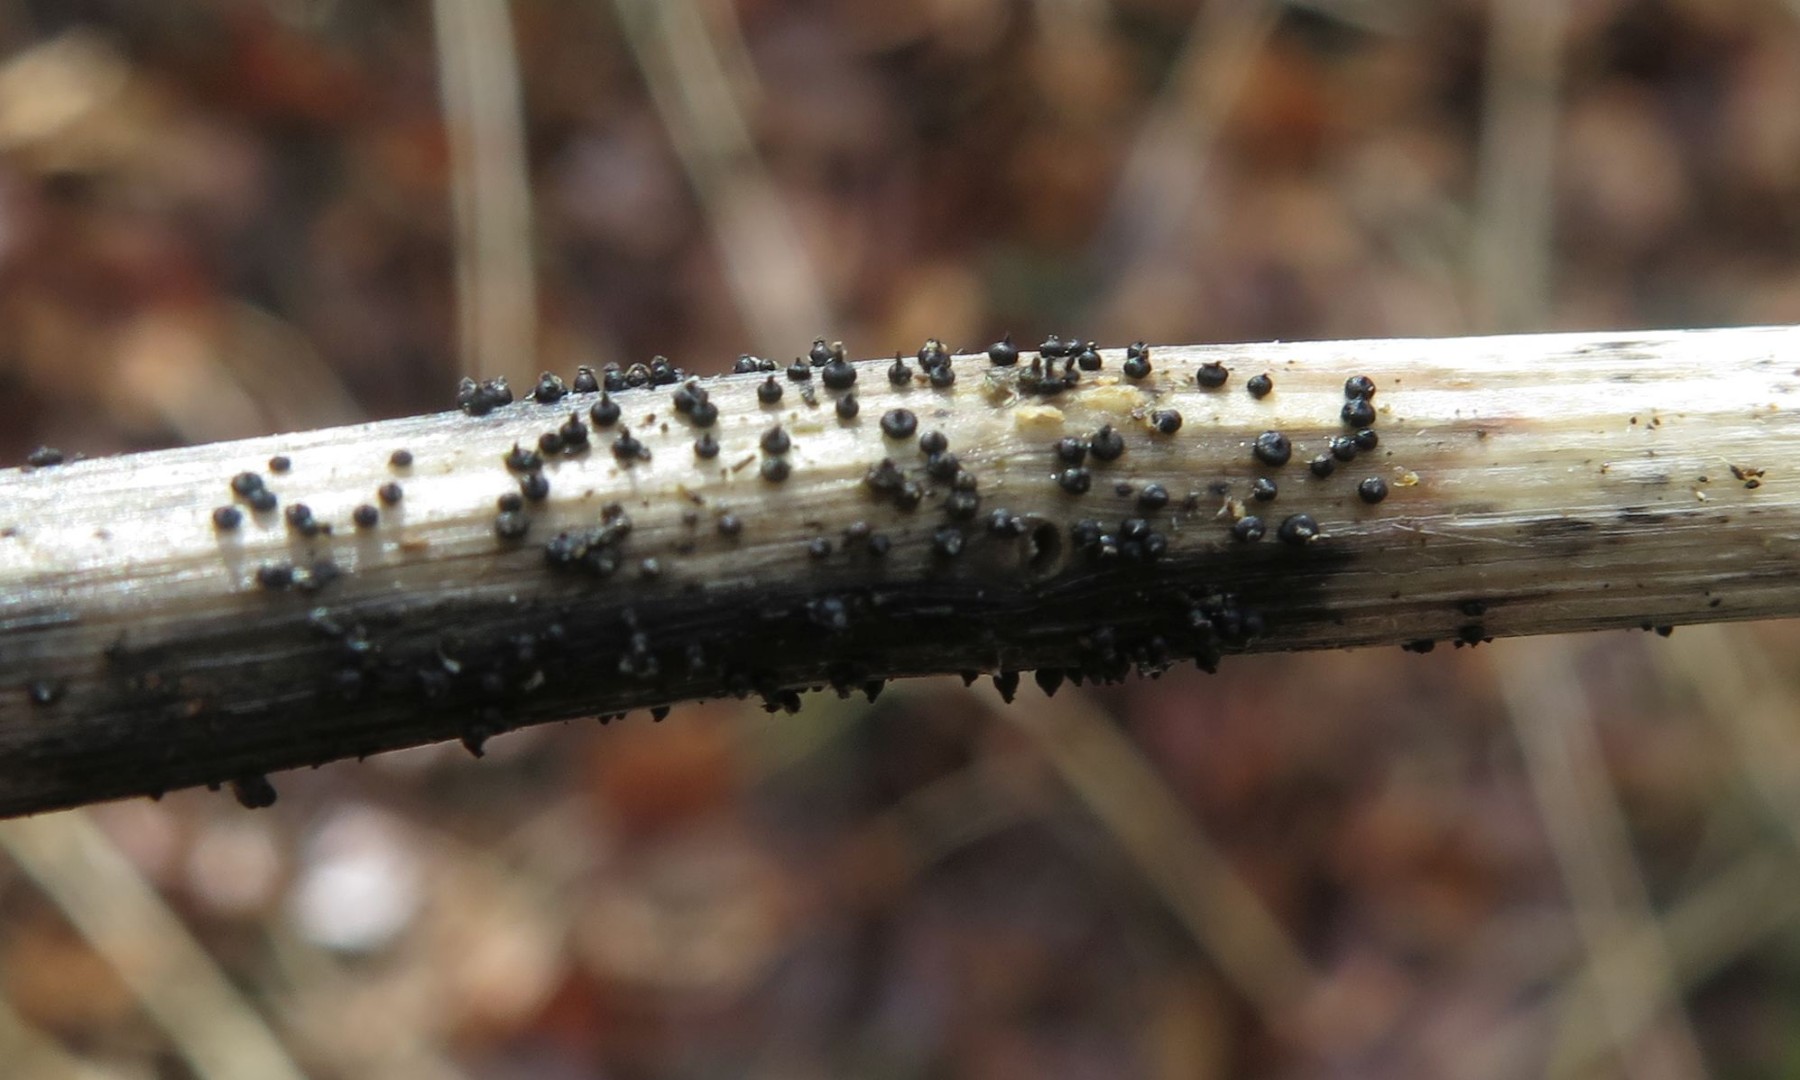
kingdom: Fungi
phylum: Ascomycota
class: Dothideomycetes
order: Pleosporales
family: Leptosphaeriaceae
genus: Leptosphaeria
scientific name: Leptosphaeria acuta
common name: spids kulkegle
